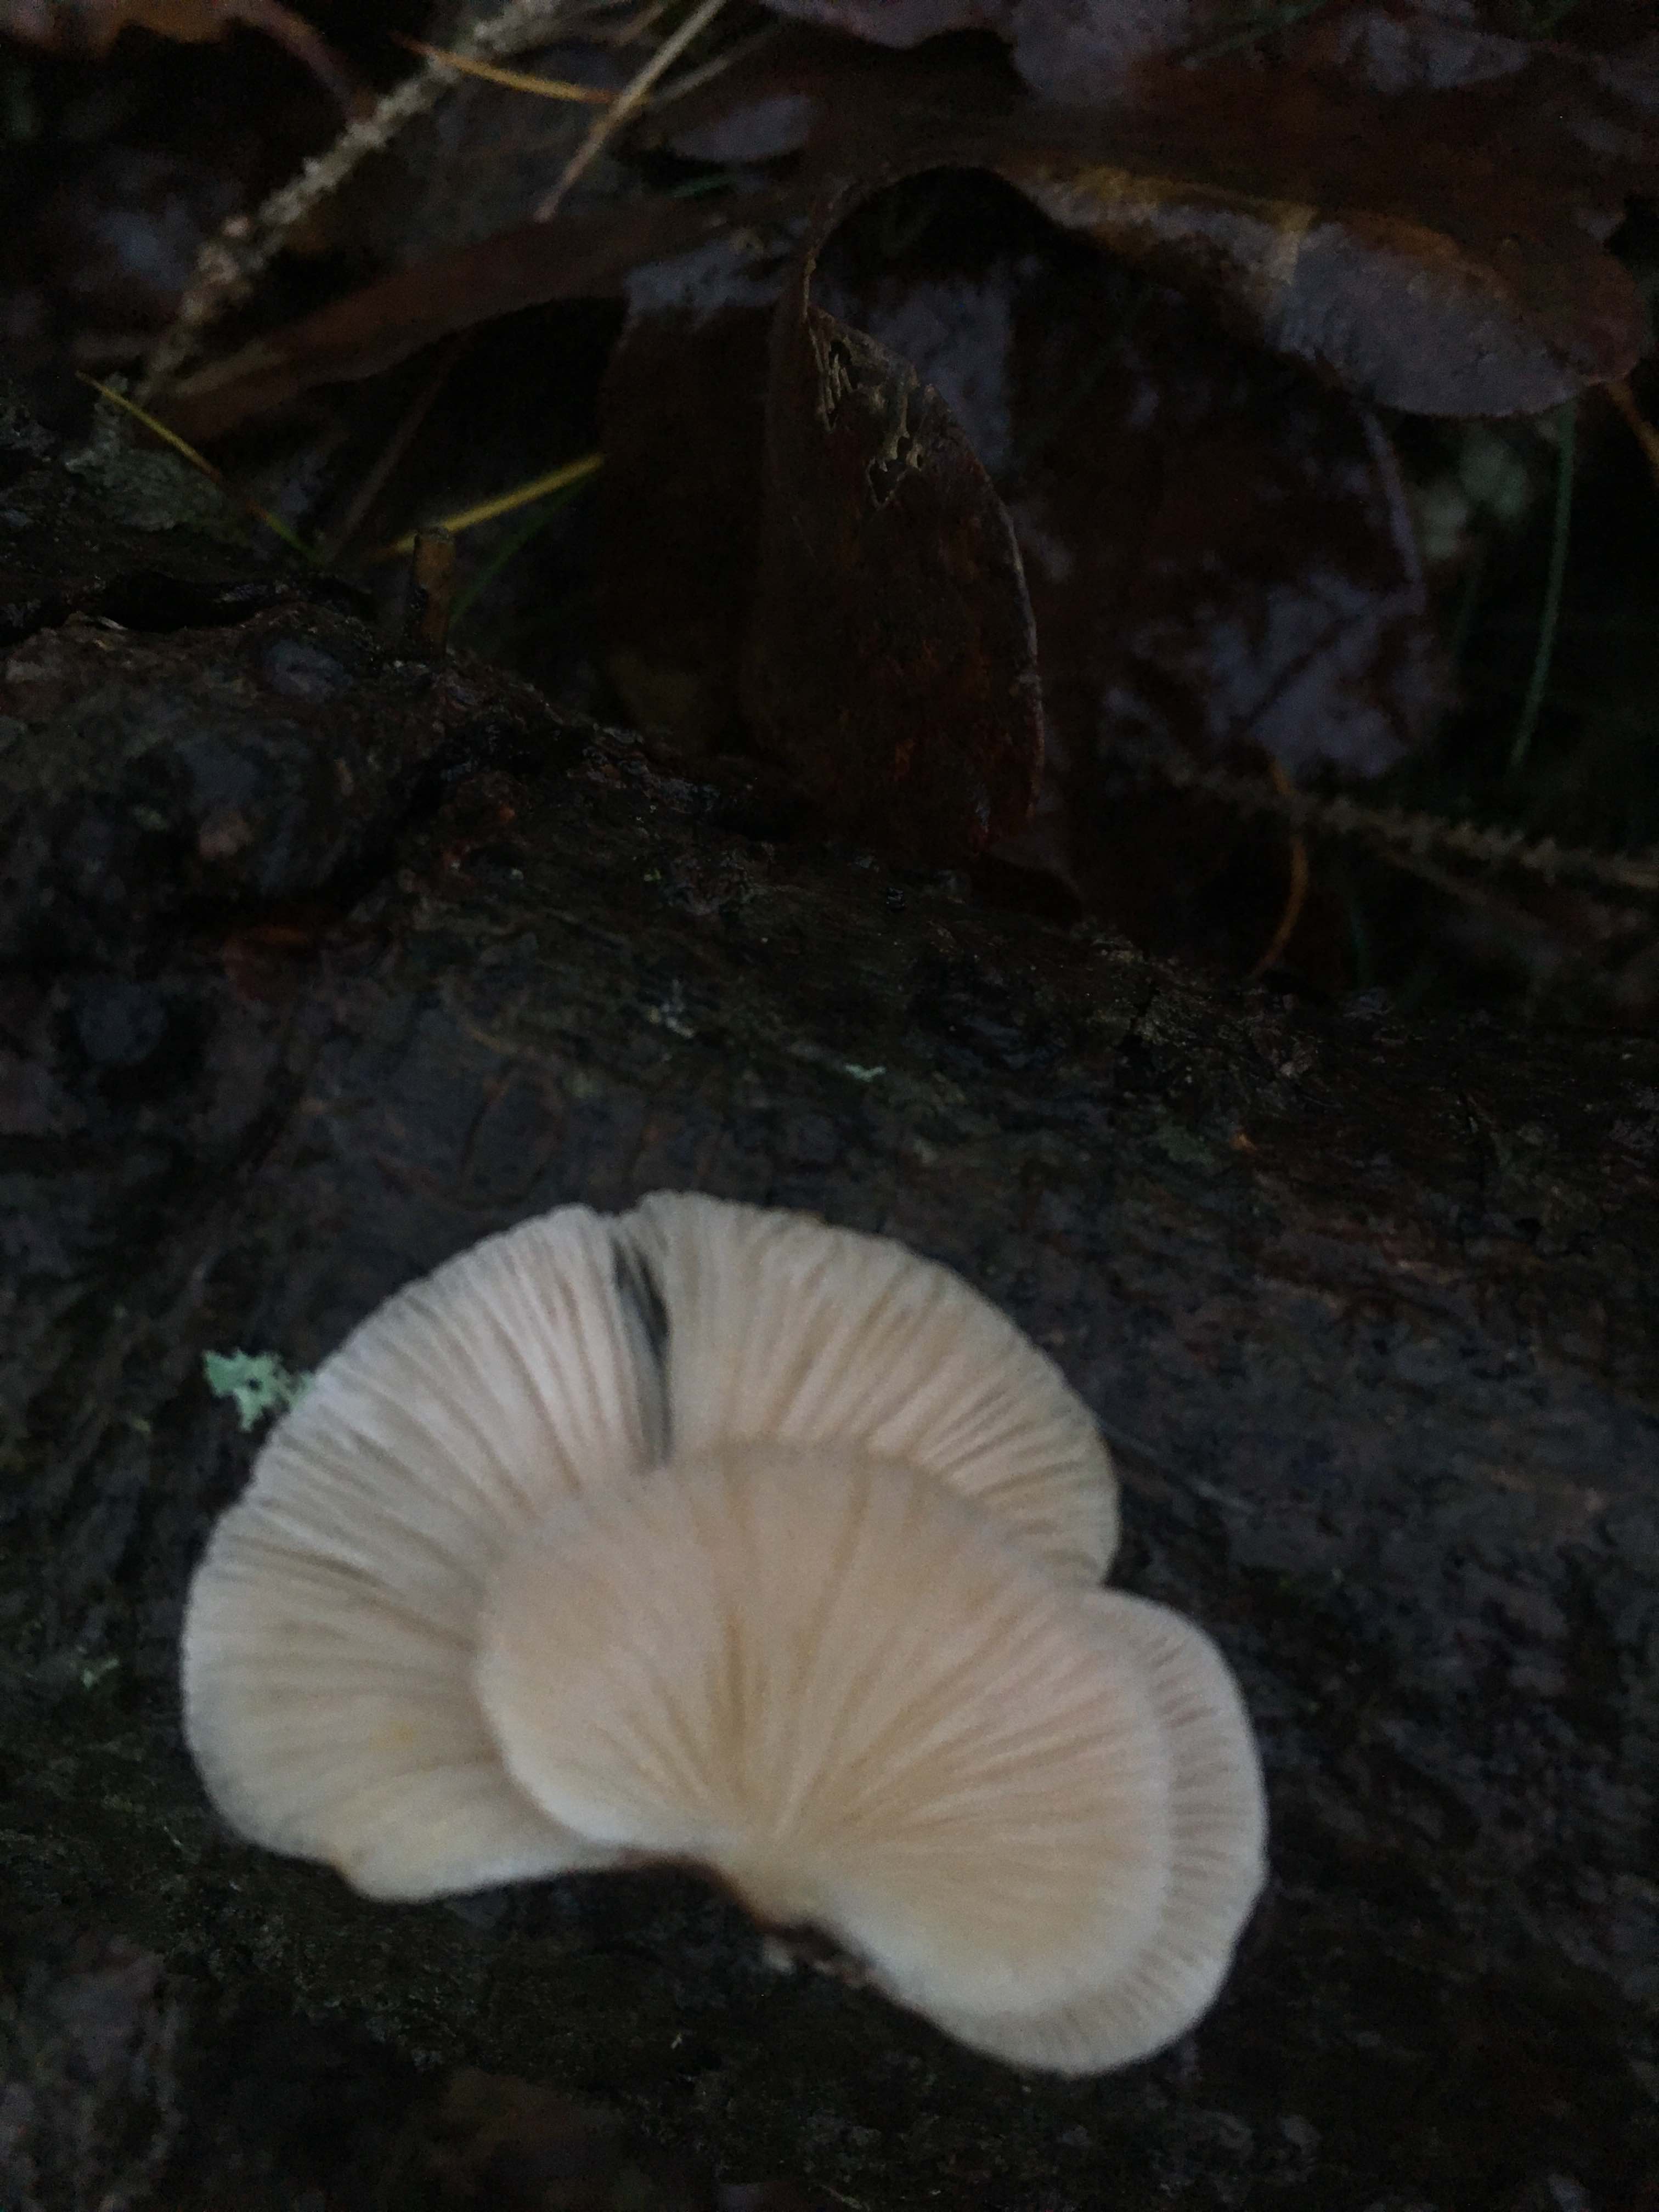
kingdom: Fungi
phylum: Basidiomycota
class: Agaricomycetes
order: Agaricales
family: Mycenaceae
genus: Panellus
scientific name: Panellus mitis
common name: mild epaulethat
